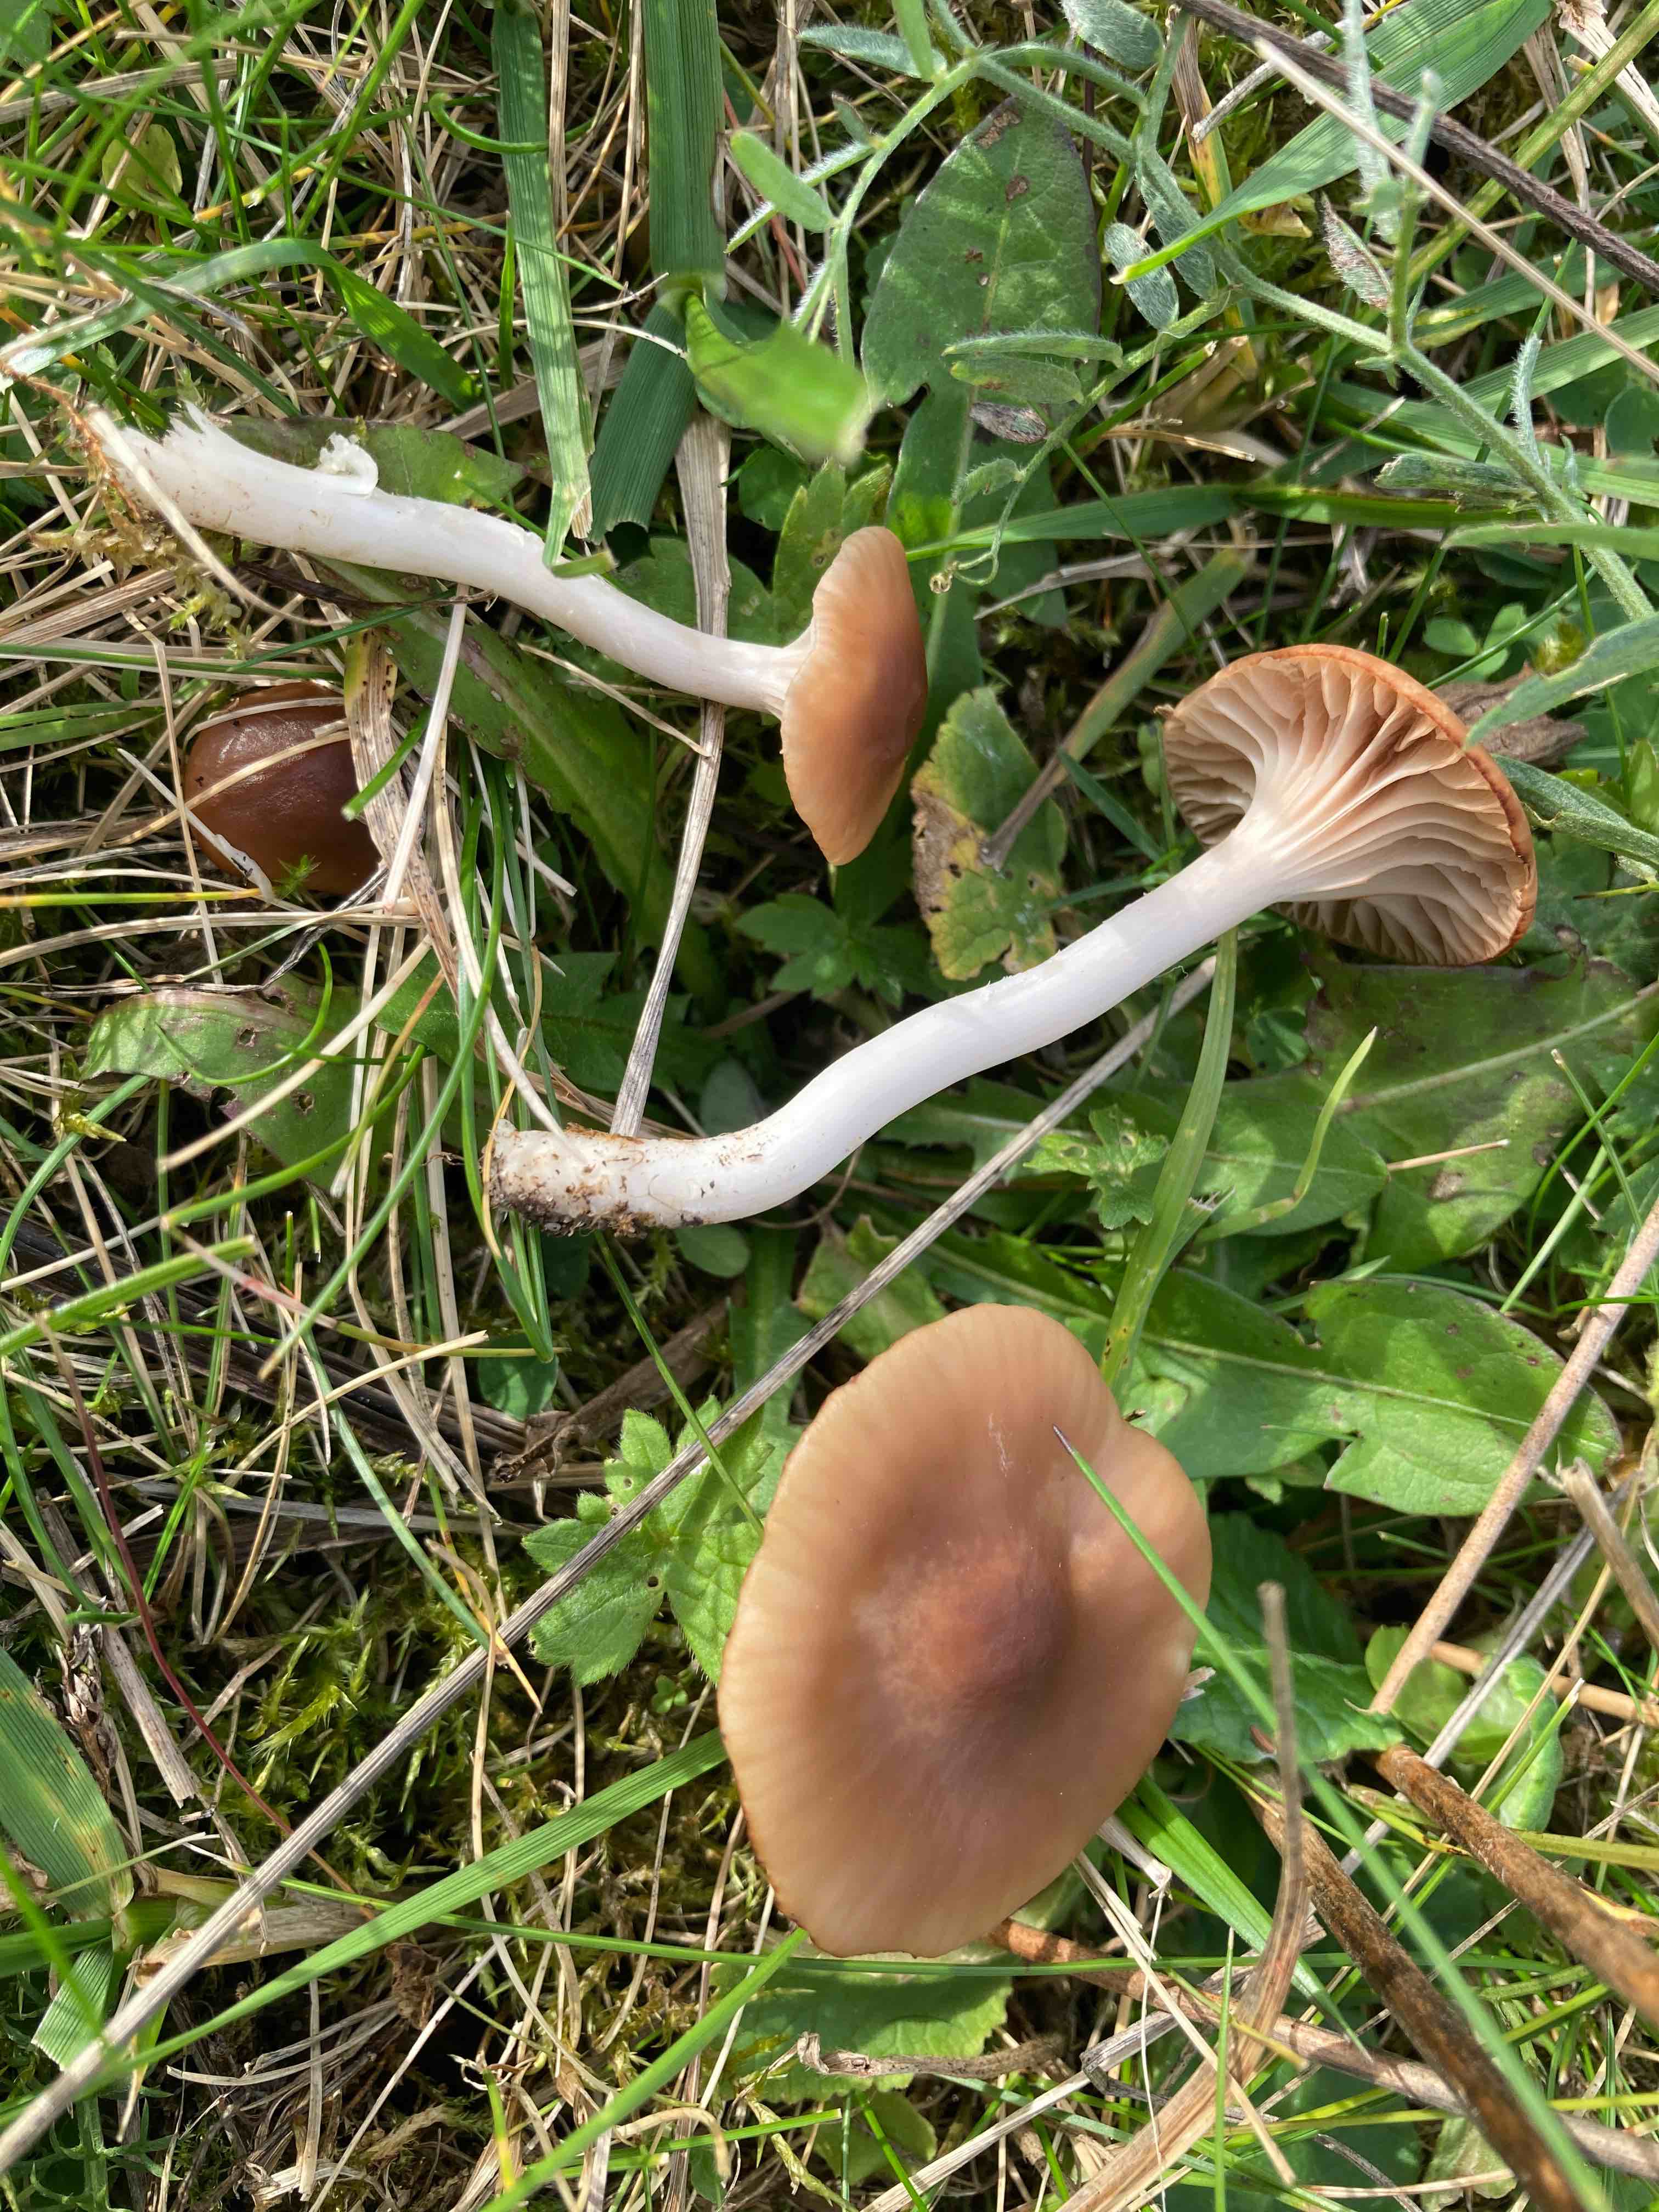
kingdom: Fungi
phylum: Basidiomycota
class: Agaricomycetes
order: Agaricales
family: Hygrophoraceae
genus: Cuphophyllus
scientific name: Cuphophyllus colemannianus
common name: rødbrun vokshat
